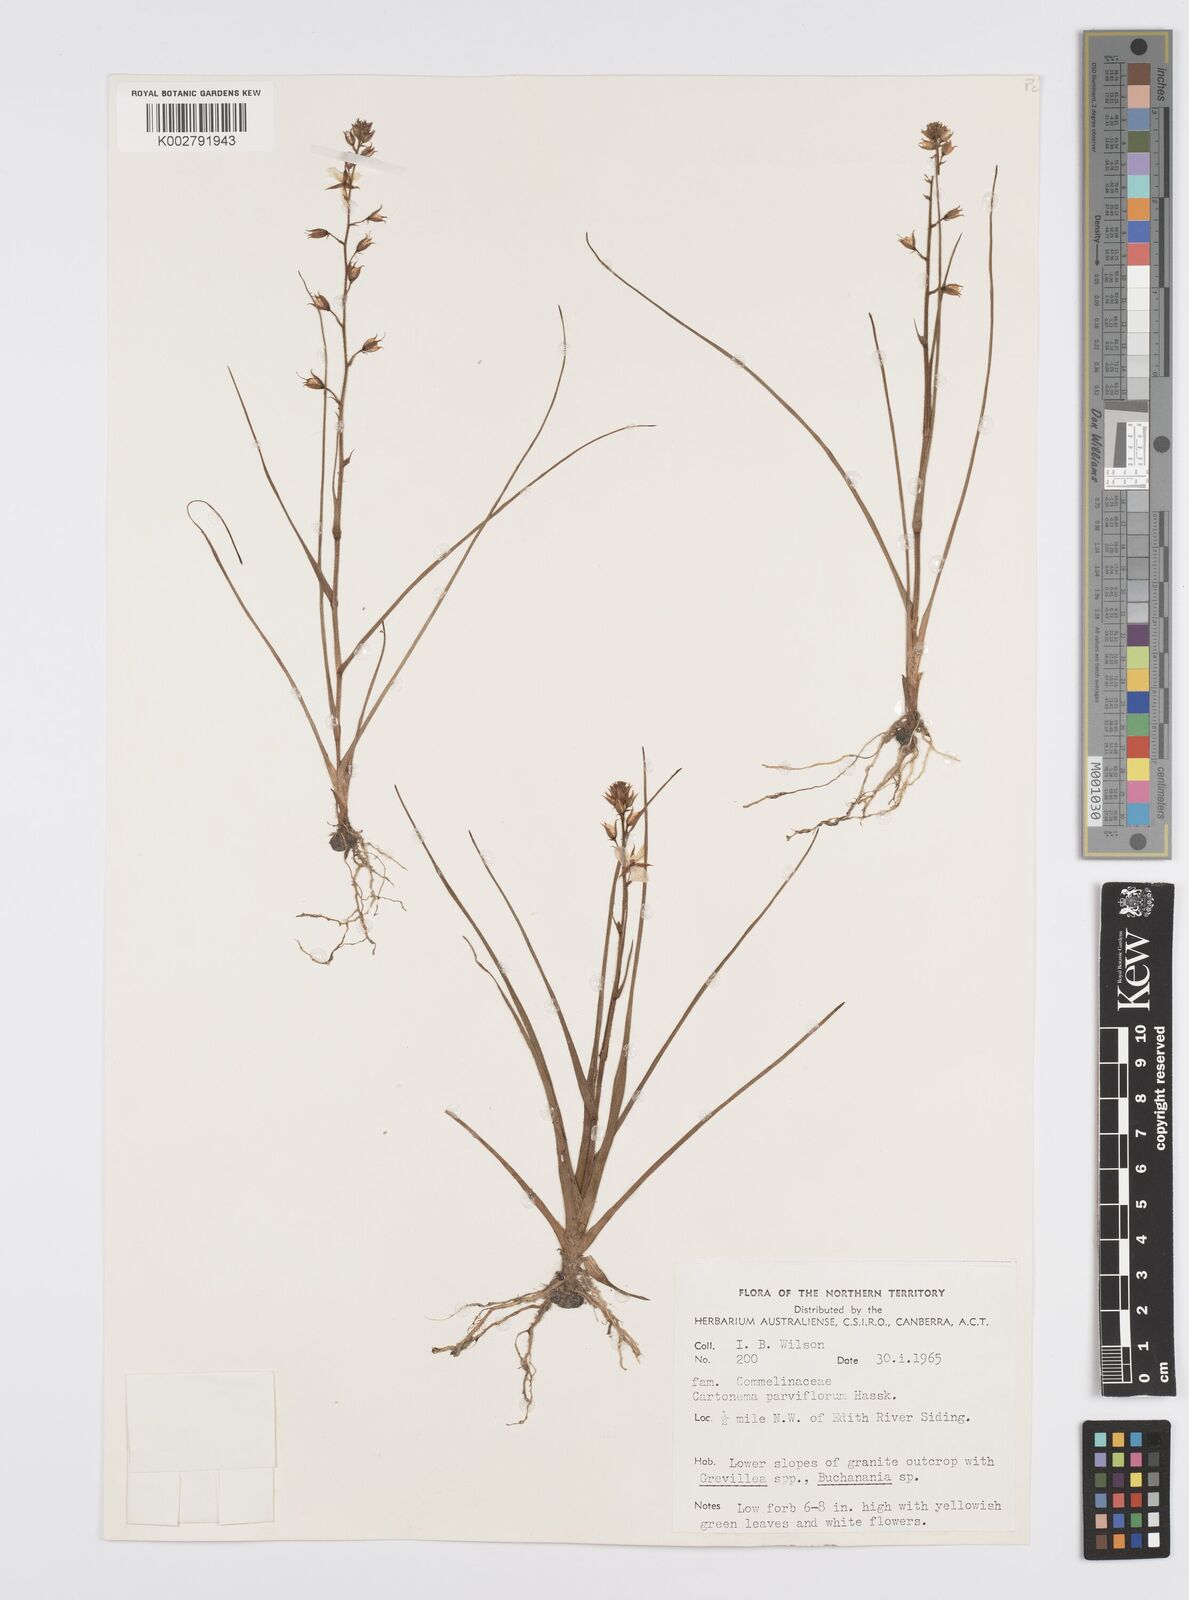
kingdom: Plantae
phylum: Tracheophyta
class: Liliopsida
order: Commelinales
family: Commelinaceae
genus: Cartonema
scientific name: Cartonema parviflorum
